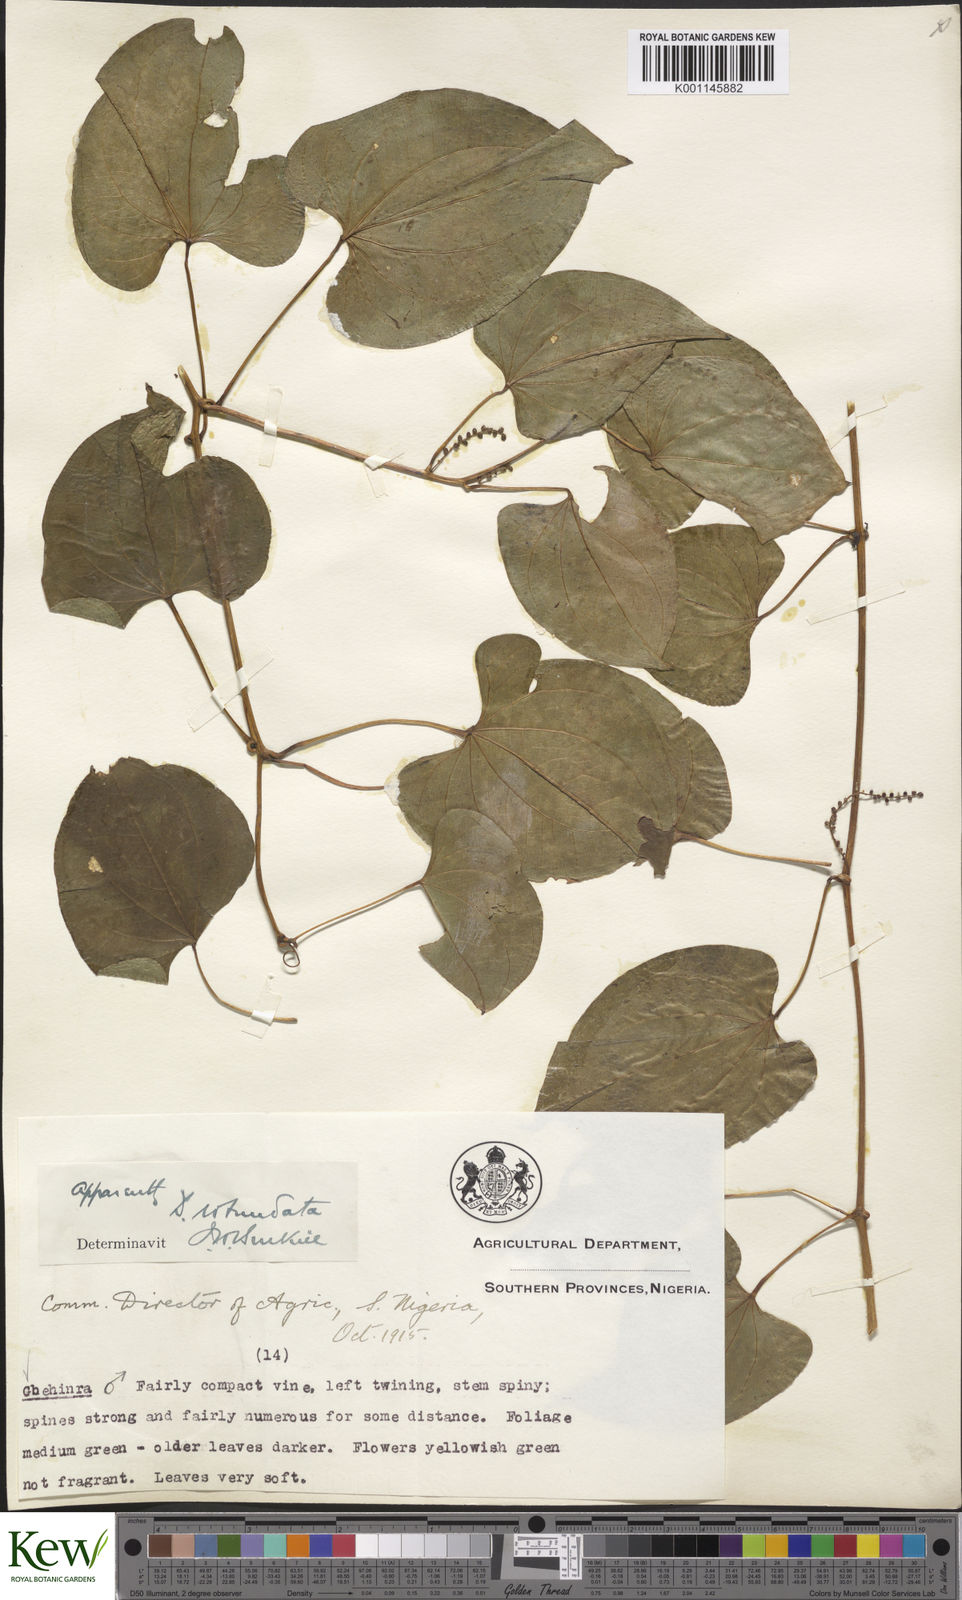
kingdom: Plantae
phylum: Tracheophyta
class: Liliopsida
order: Dioscoreales
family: Dioscoreaceae
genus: Dioscorea
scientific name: Dioscorea cayenensis
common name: Attoto yam
